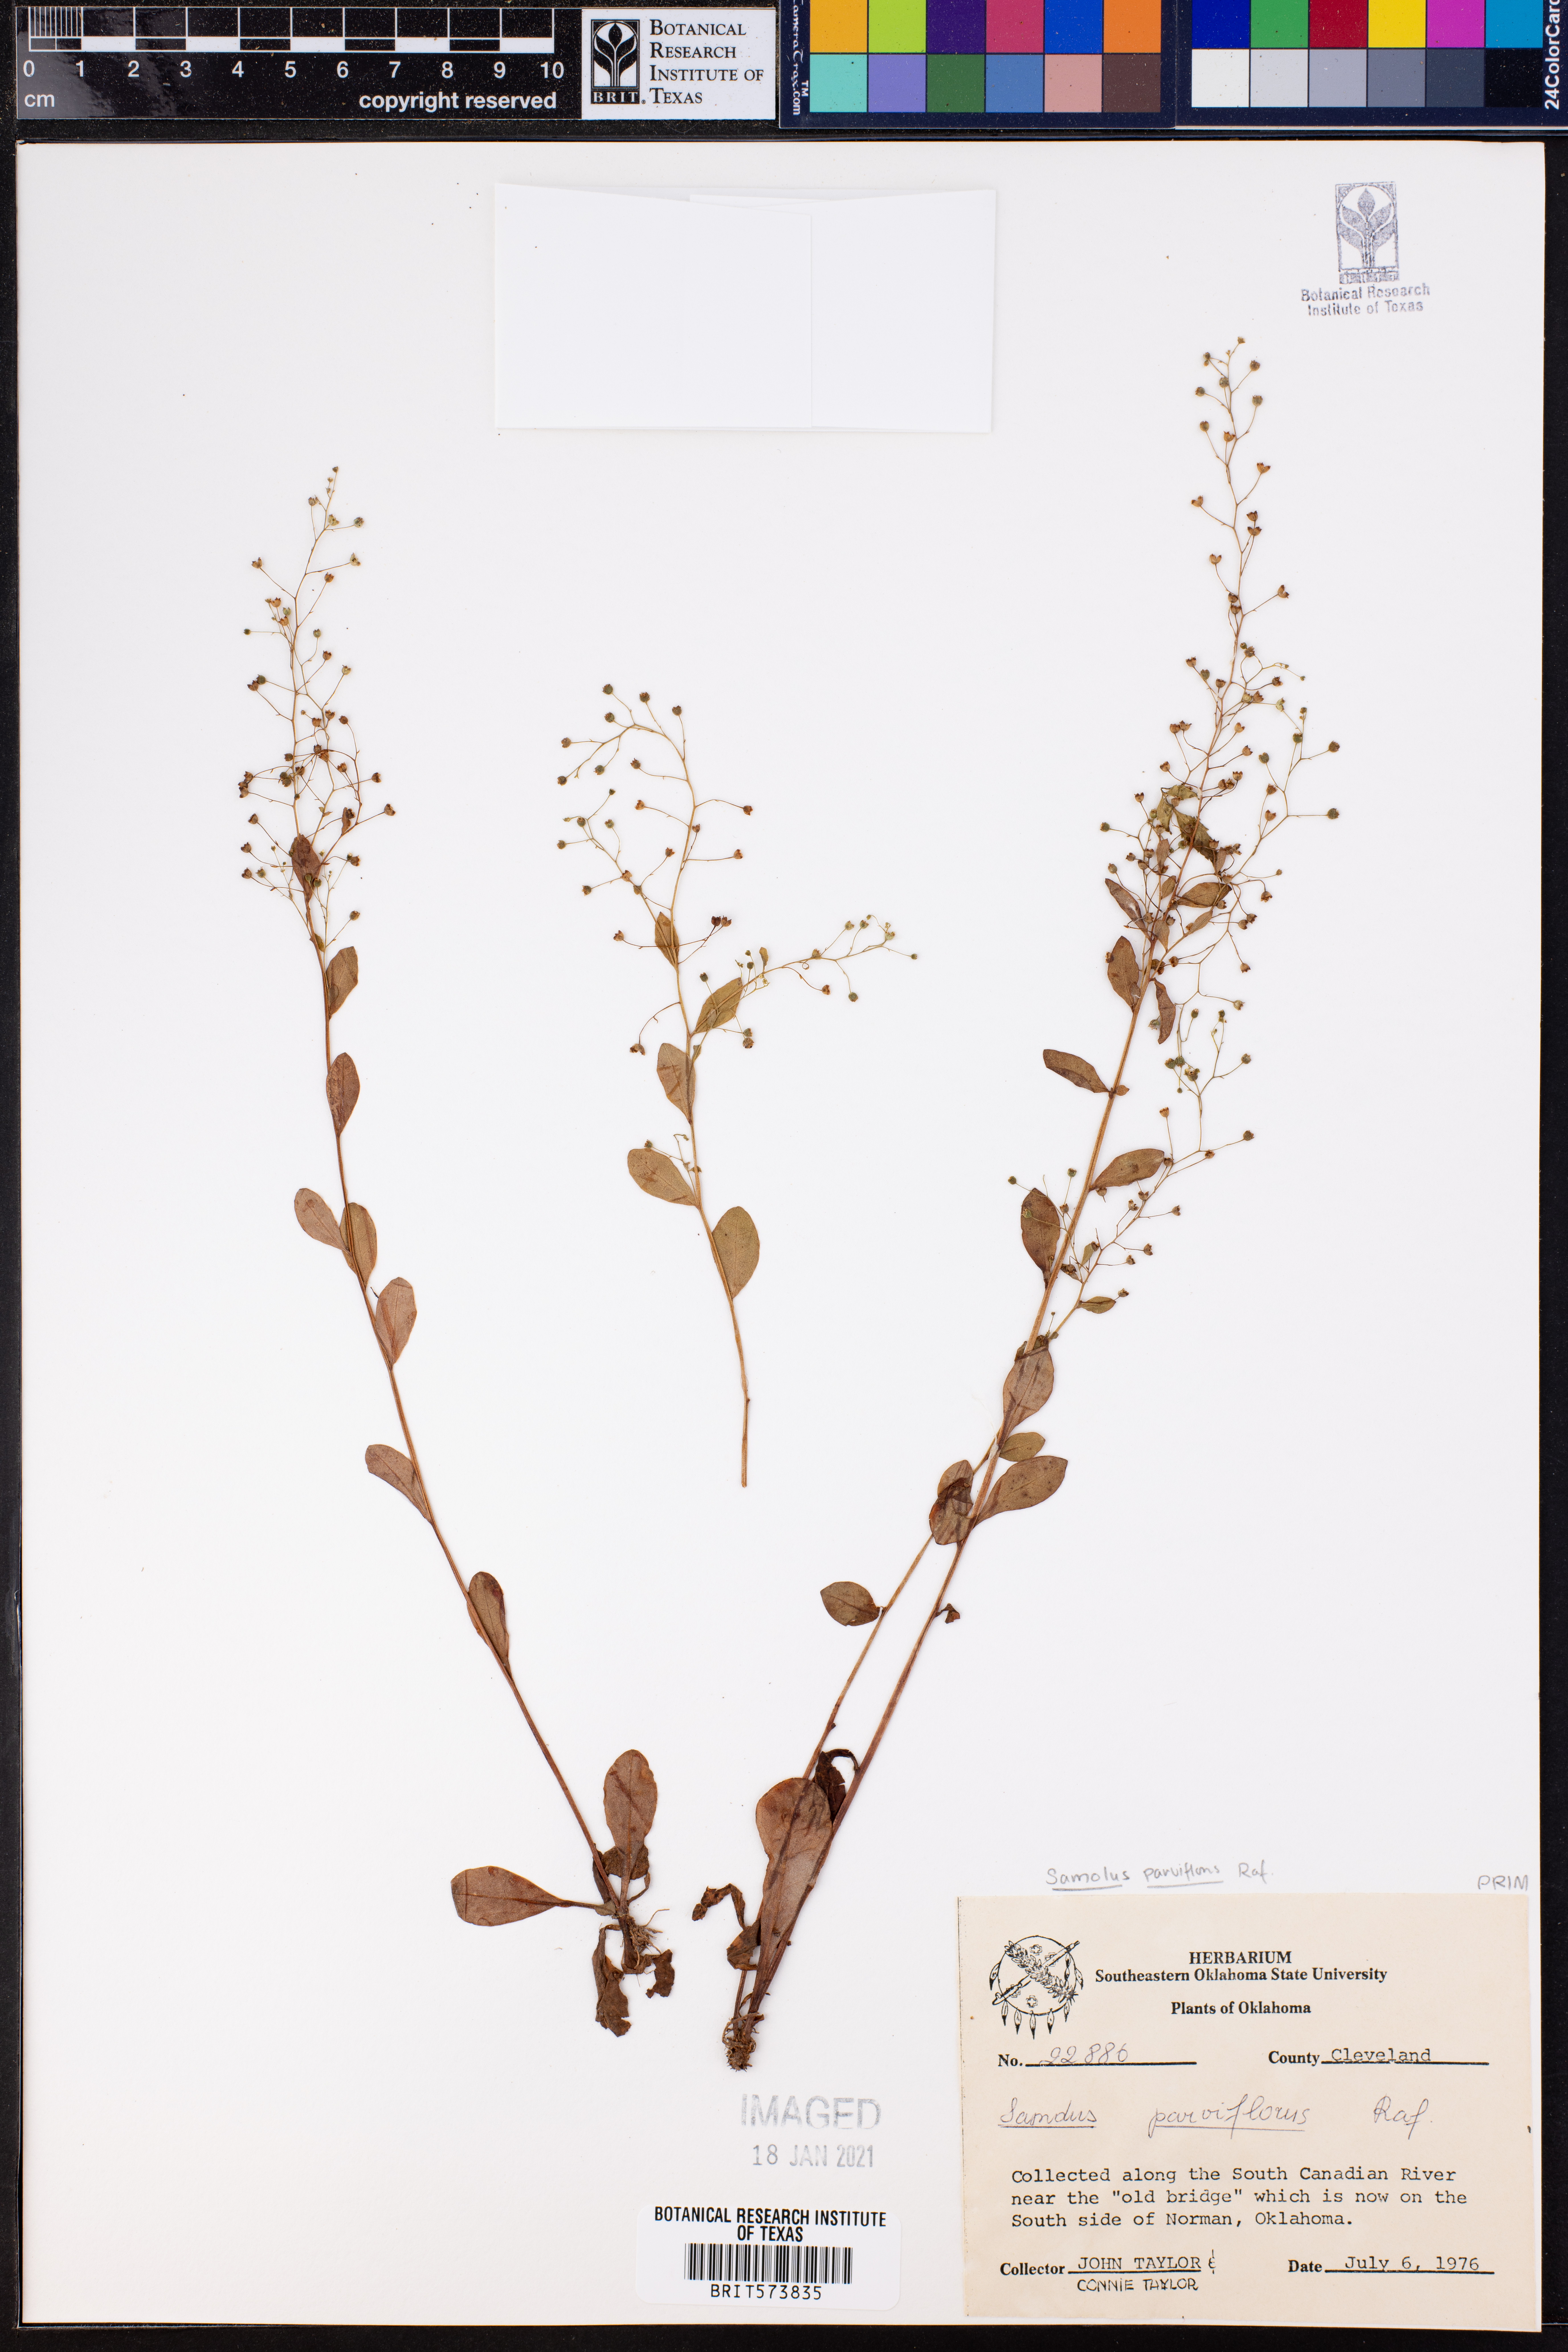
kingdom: Plantae
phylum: Tracheophyta
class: Magnoliopsida
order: Ericales
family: Primulaceae
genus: Samolus
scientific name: Samolus parviflorus
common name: False water pimpernel
